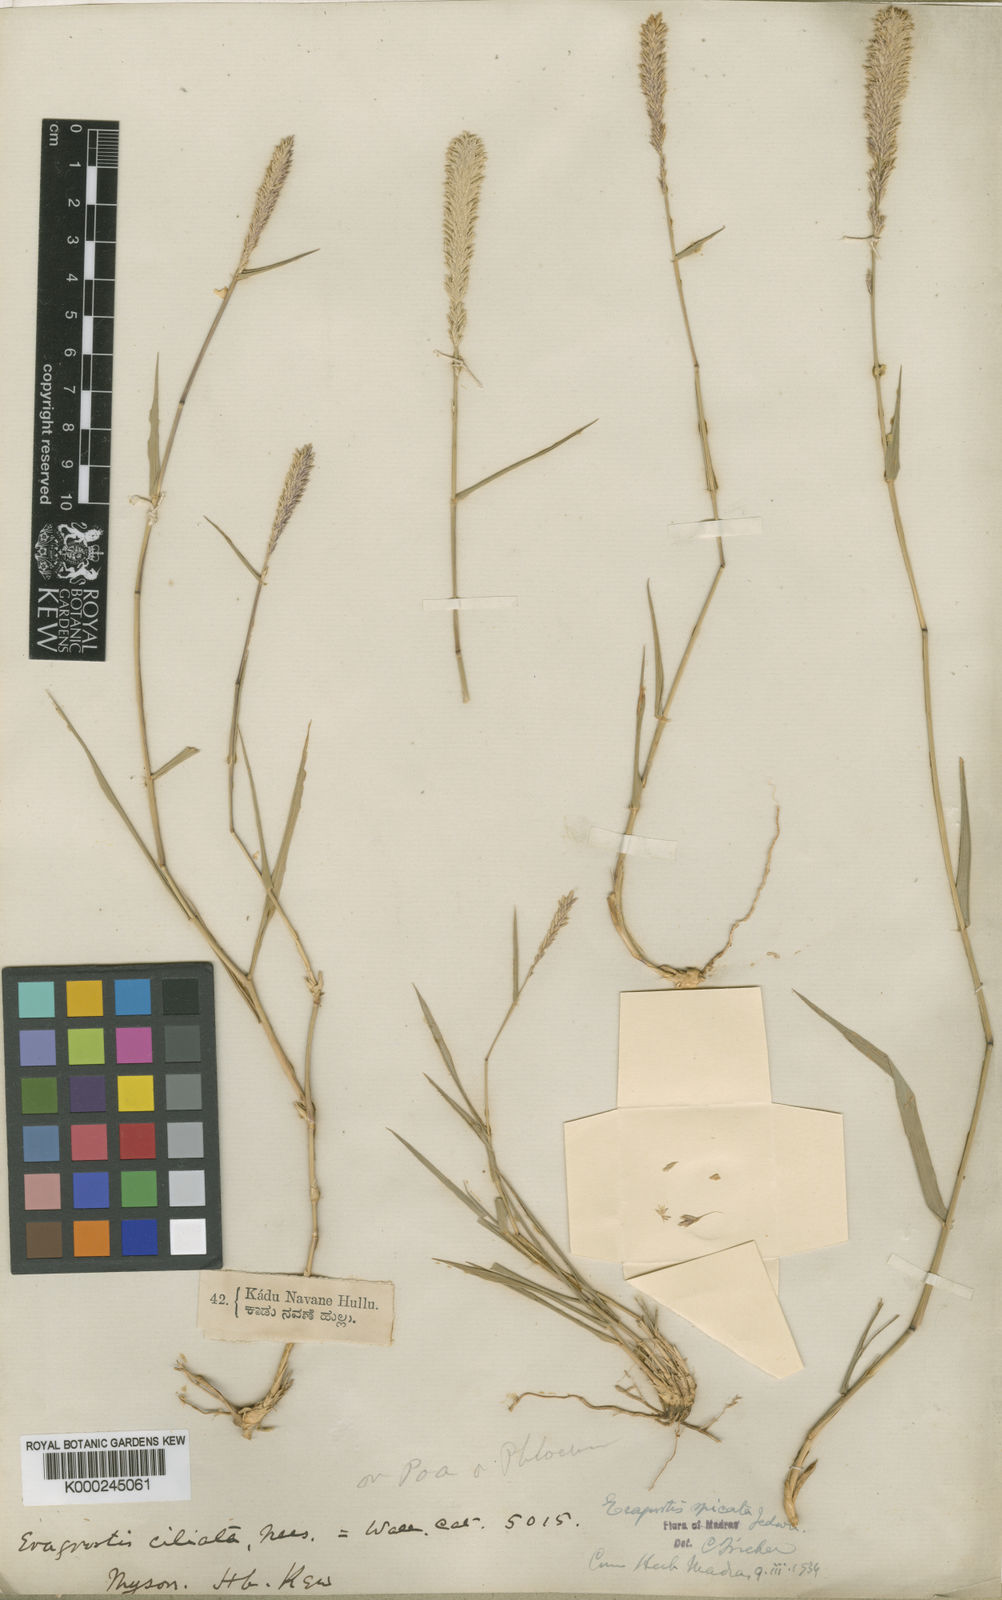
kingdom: Plantae
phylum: Tracheophyta
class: Liliopsida
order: Poales
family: Poaceae
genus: Eragrostis
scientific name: Eragrostis deccanensis
